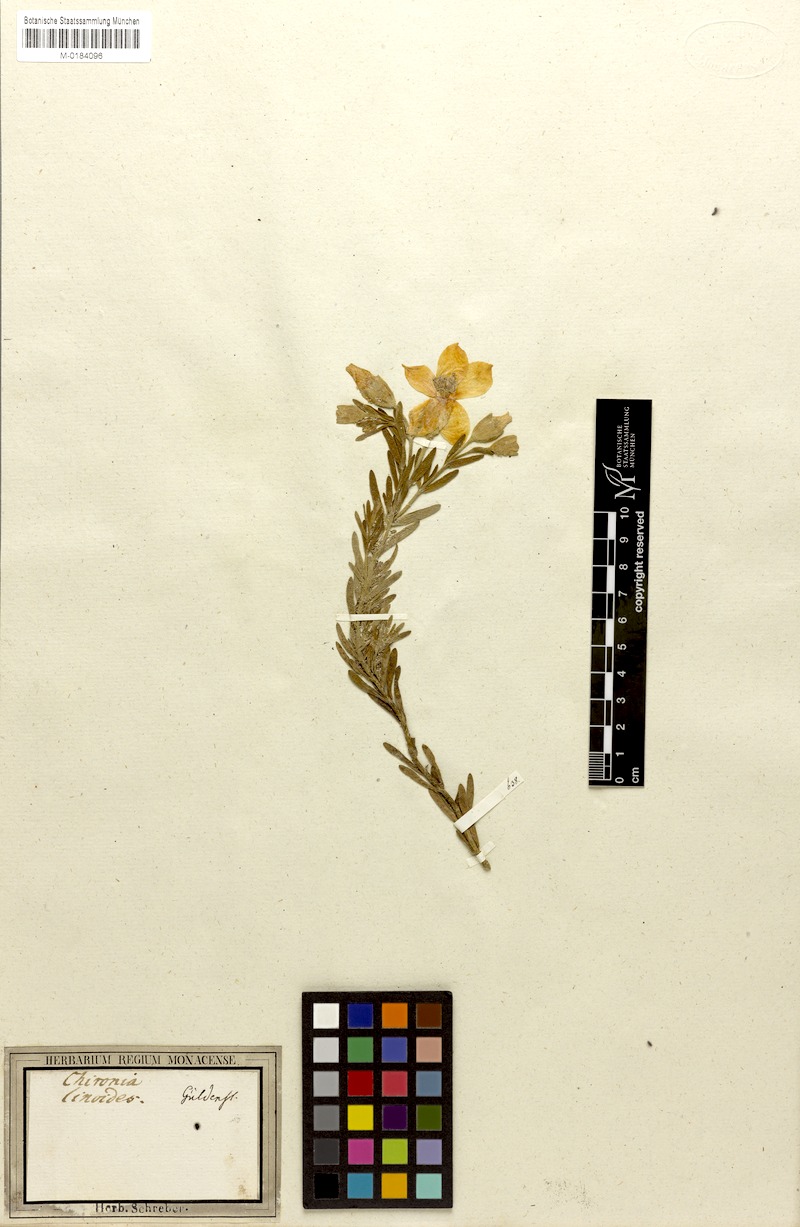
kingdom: Plantae
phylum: Tracheophyta
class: Magnoliopsida
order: Gentianales
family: Gentianaceae
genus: Orphium
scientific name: Orphium frutescens
